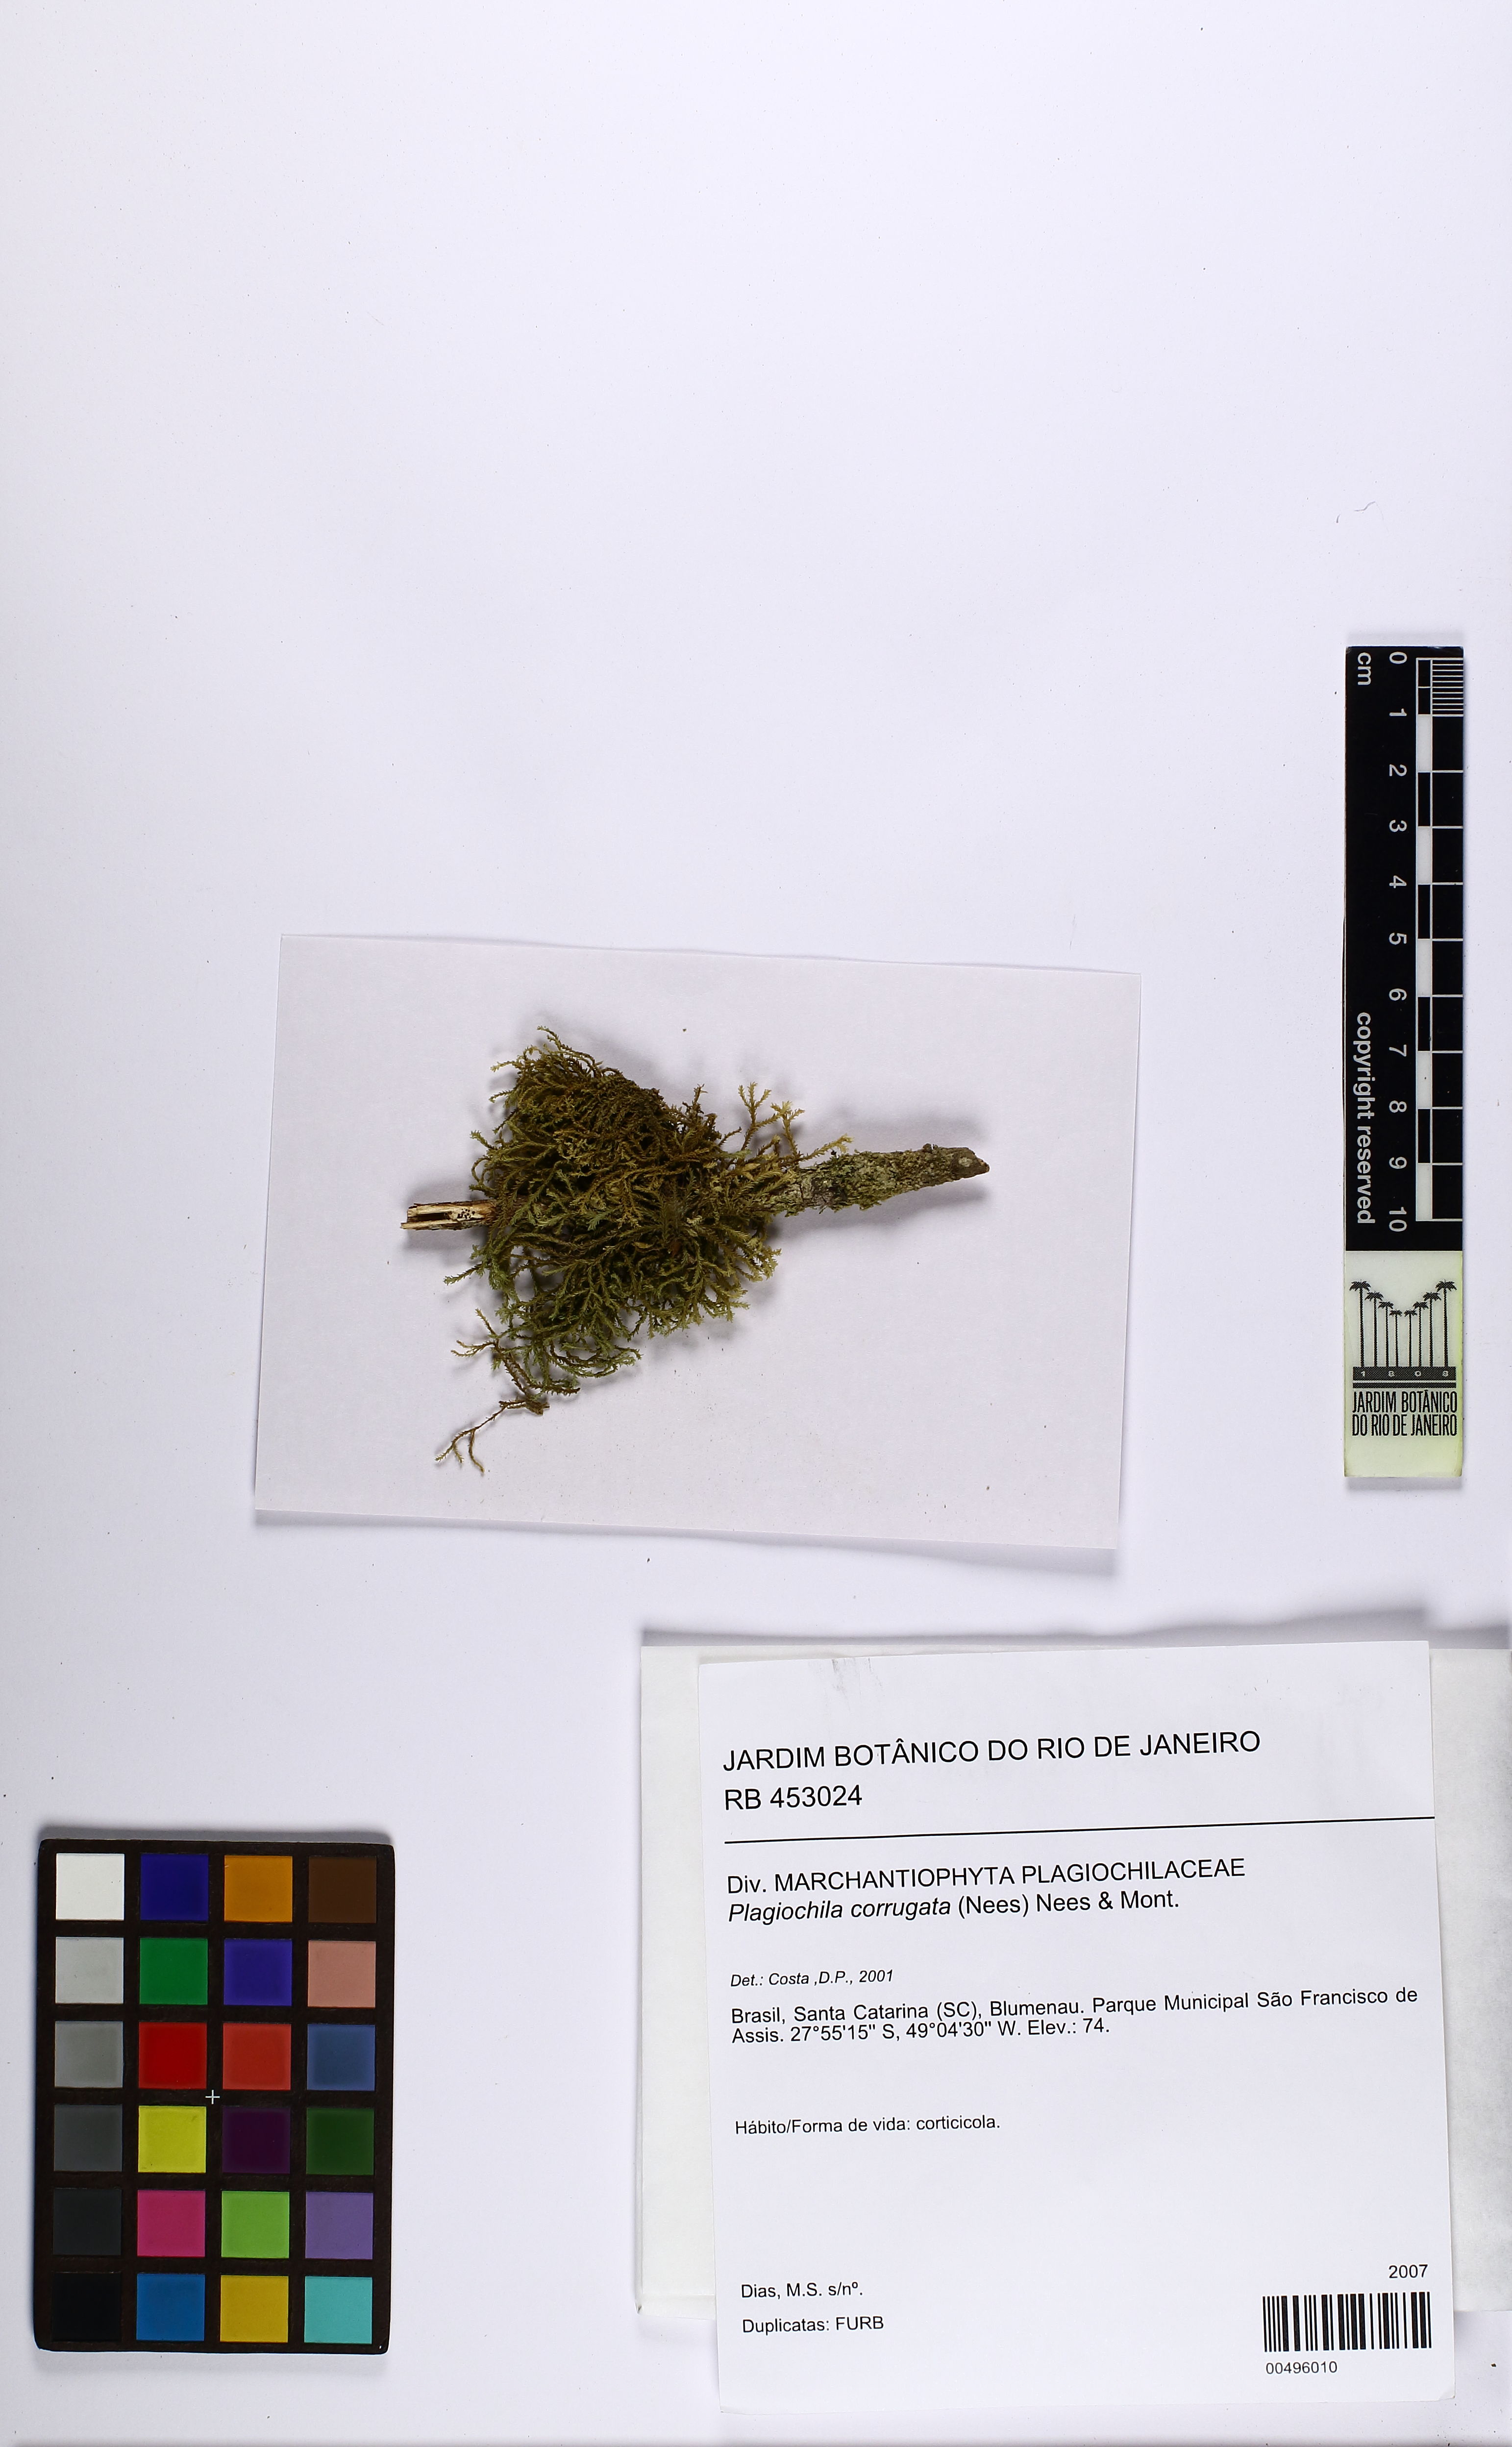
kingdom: Plantae
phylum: Marchantiophyta
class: Jungermanniopsida
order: Jungermanniales
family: Plagiochilaceae
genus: Plagiochila
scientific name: Plagiochila corrugata
